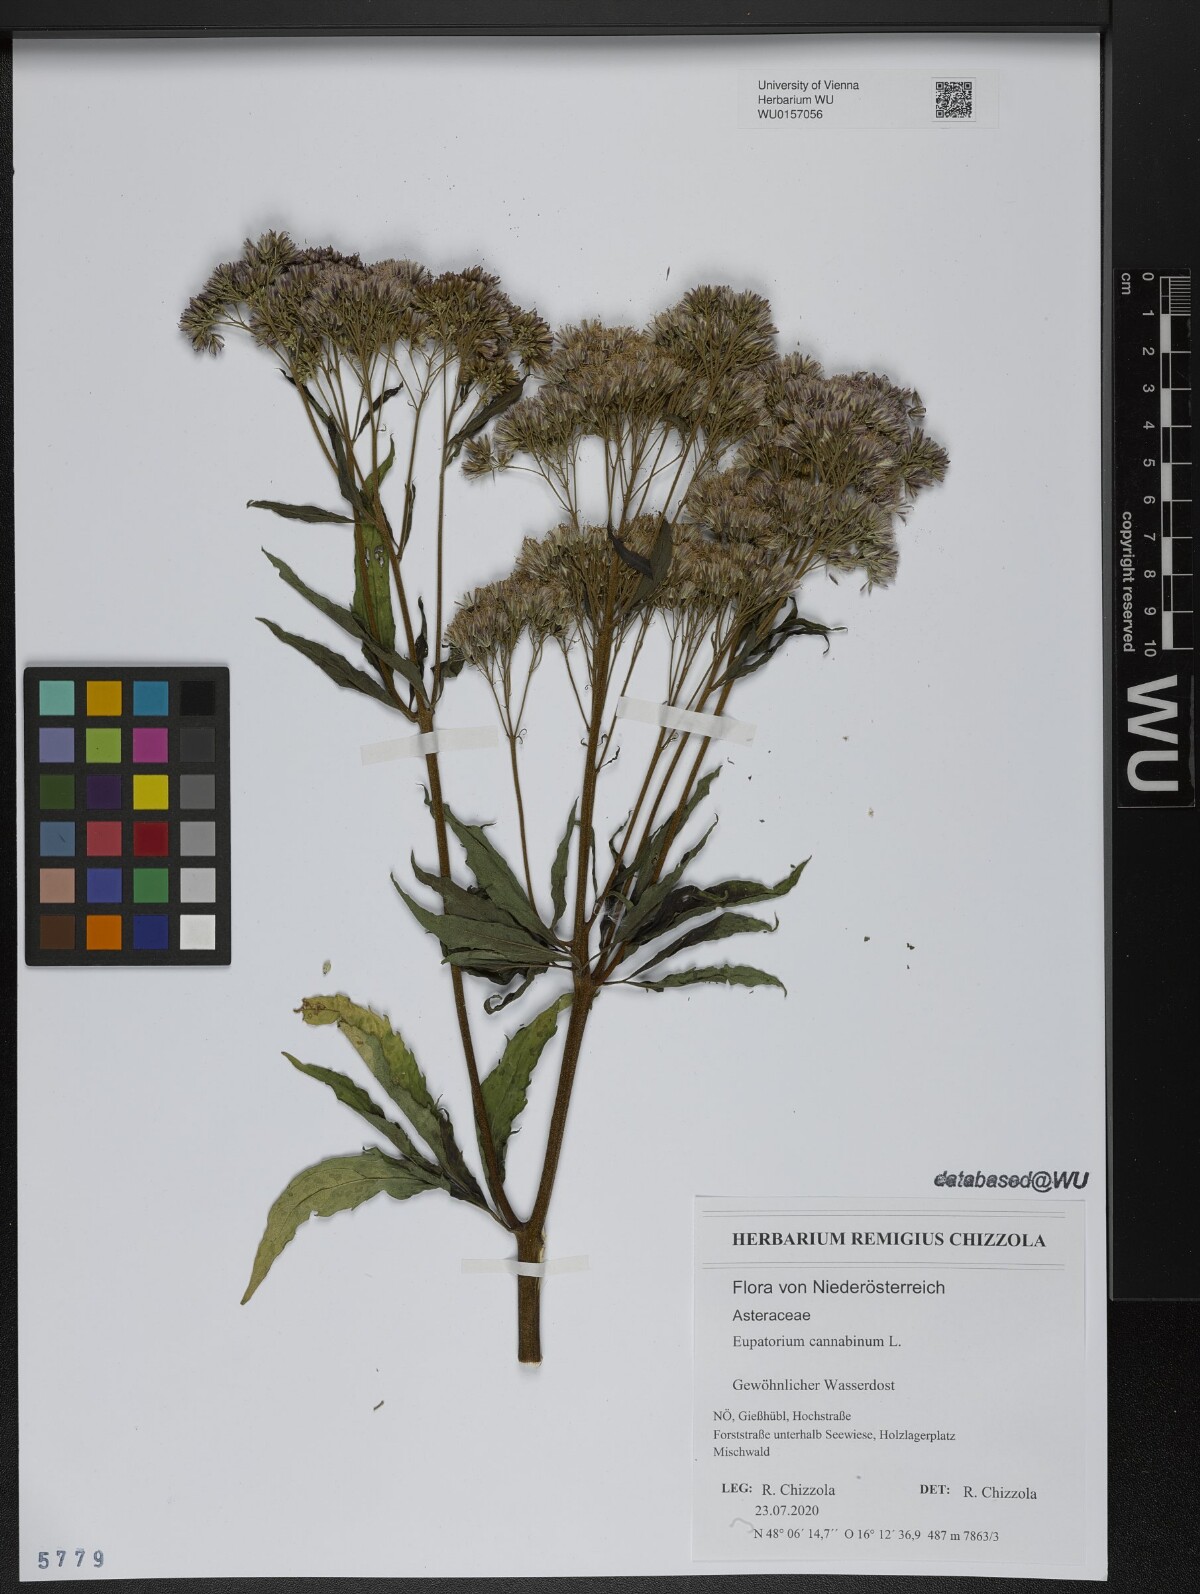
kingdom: Plantae
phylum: Tracheophyta
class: Magnoliopsida
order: Asterales
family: Asteraceae
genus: Eupatorium
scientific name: Eupatorium cannabinum
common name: Hemp-agrimony
